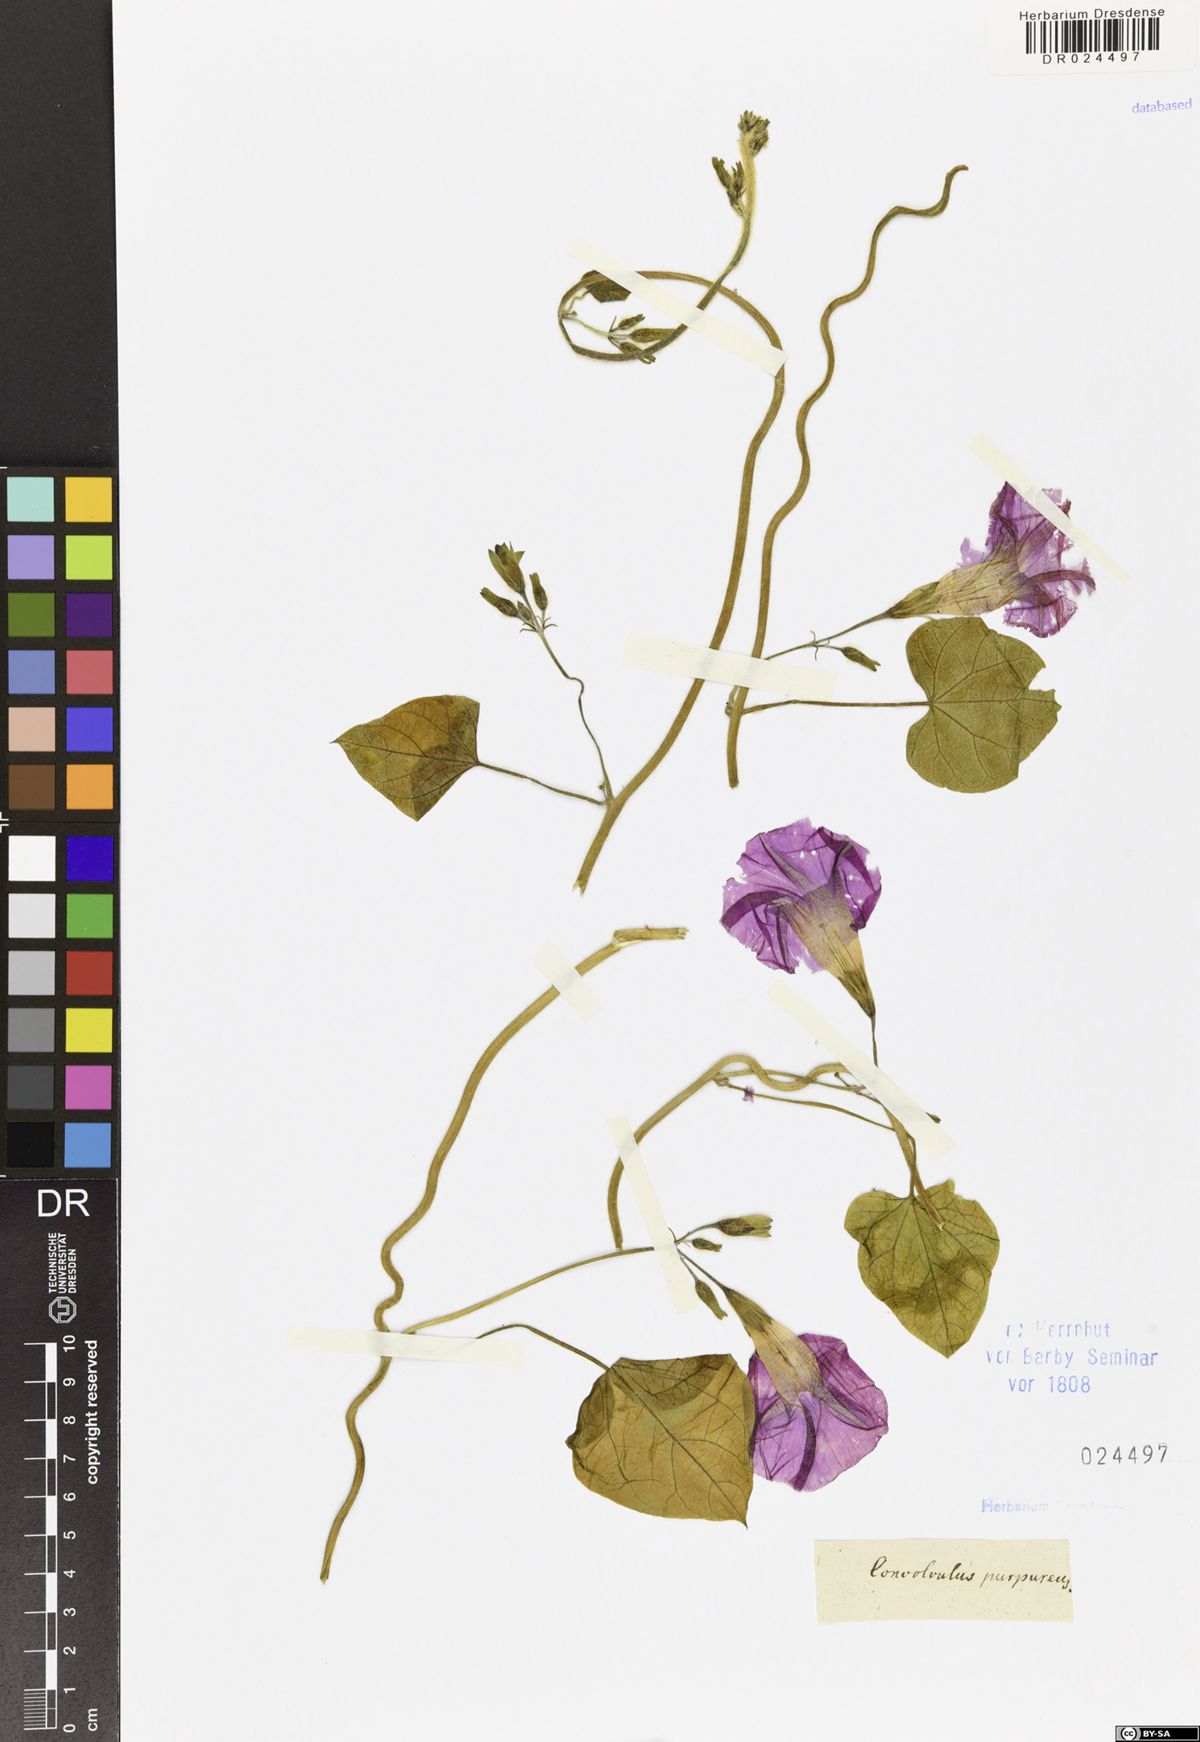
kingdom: Plantae
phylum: Tracheophyta
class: Magnoliopsida
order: Solanales
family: Convolvulaceae
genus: Ipomoea
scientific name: Ipomoea purpurea
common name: Common morning-glory
